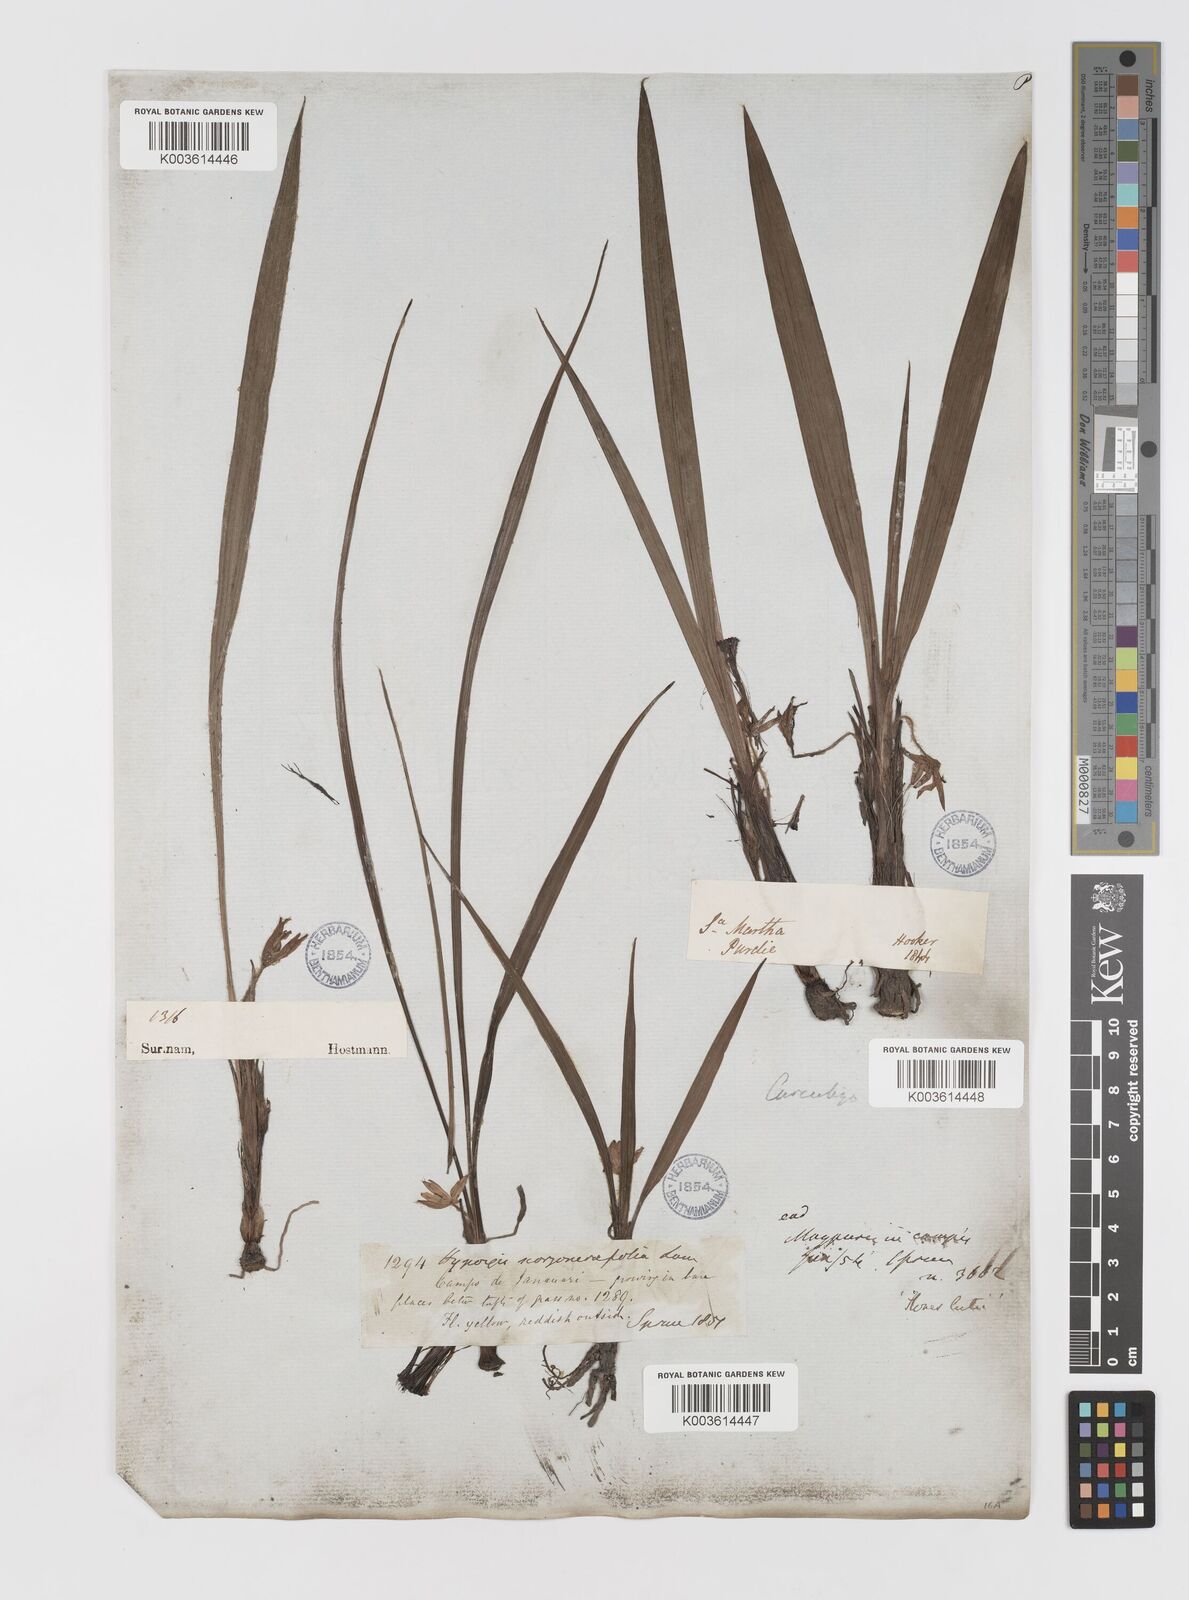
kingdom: Plantae
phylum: Tracheophyta
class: Liliopsida
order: Asparagales
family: Hypoxidaceae
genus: Curculigo
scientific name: Curculigo scorzonerifolia
